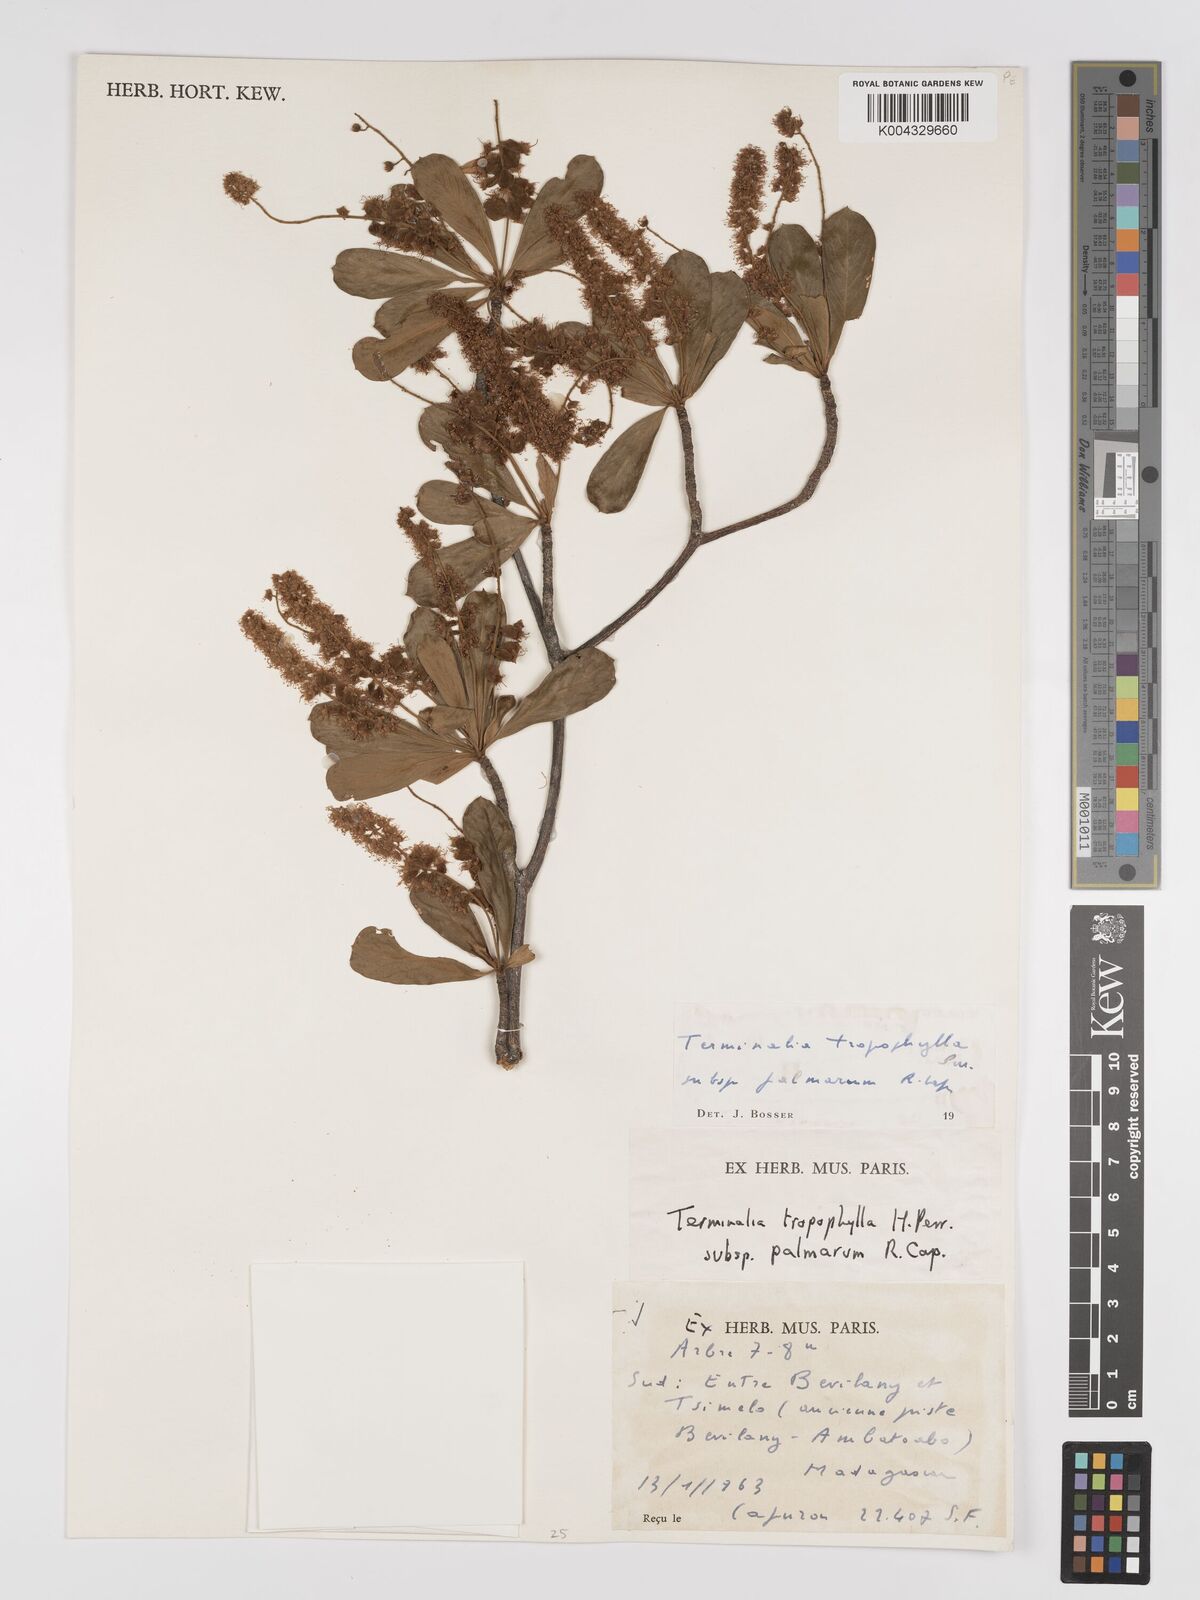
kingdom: Plantae
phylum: Tracheophyta
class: Magnoliopsida
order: Myrtales
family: Combretaceae
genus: Terminalia
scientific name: Terminalia tropophylla
